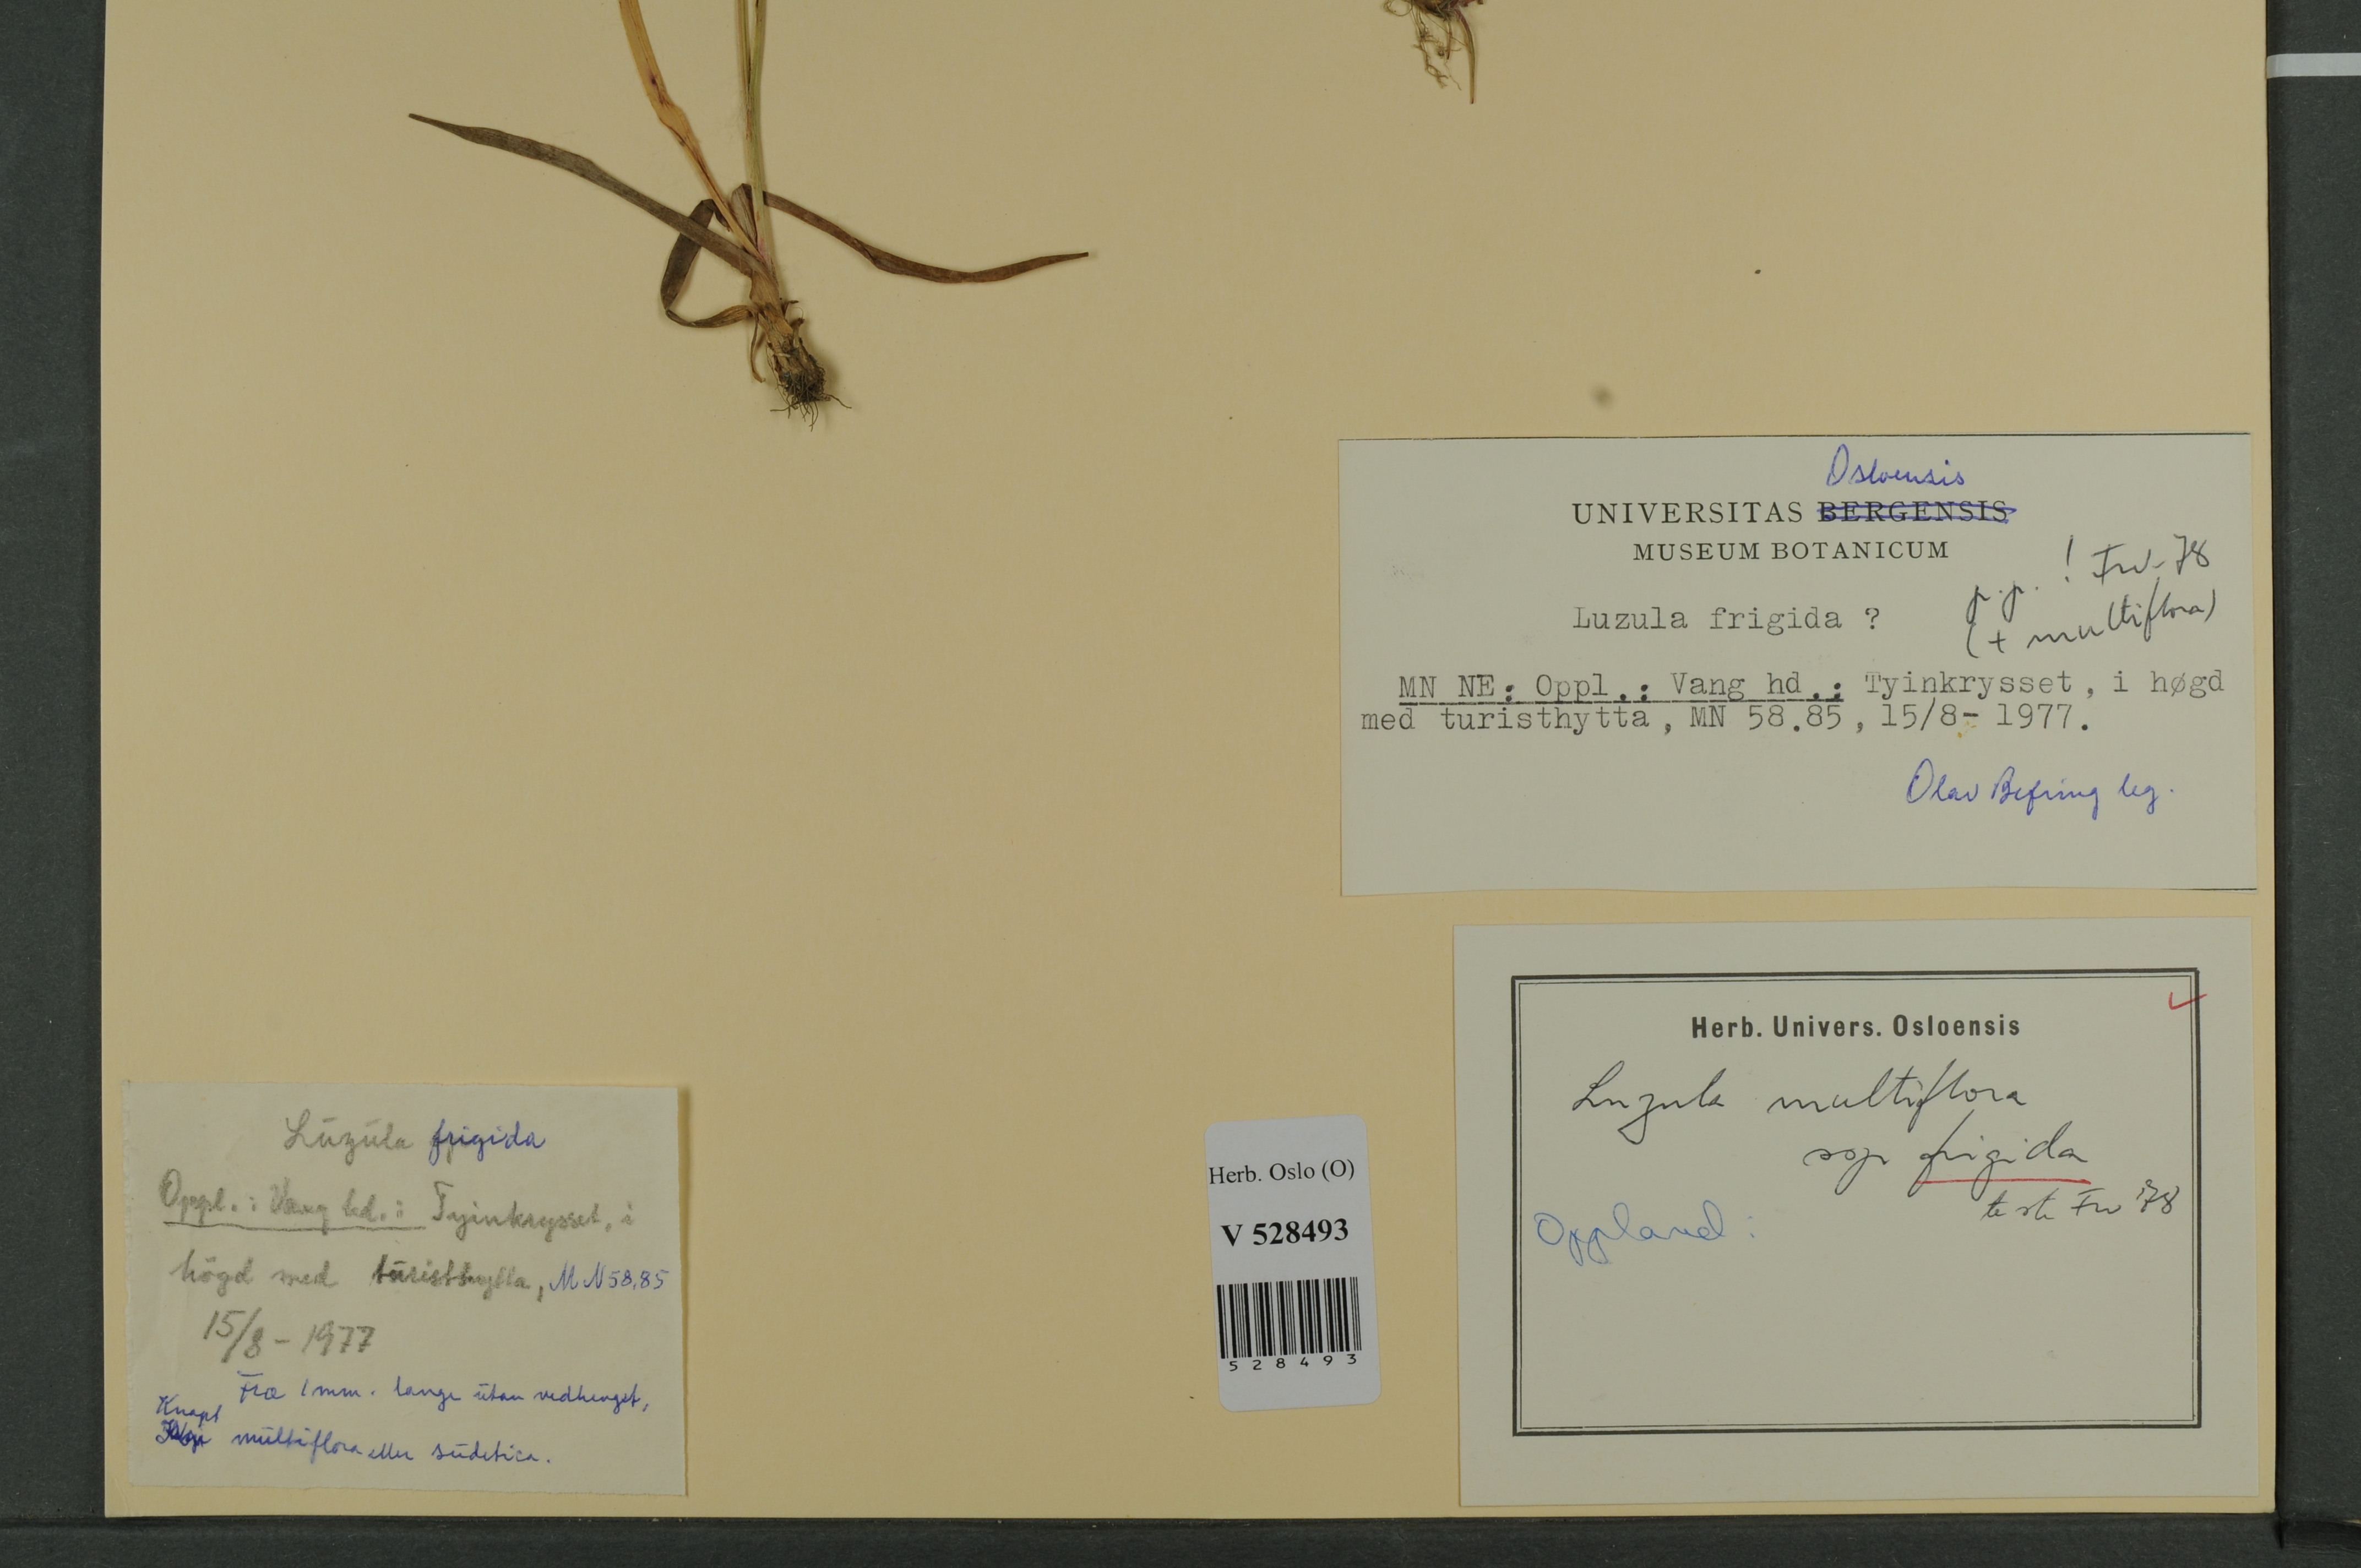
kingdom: Plantae
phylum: Tracheophyta
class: Liliopsida
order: Poales
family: Juncaceae
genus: Luzula
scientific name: Luzula multiflora
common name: Heath wood-rush
